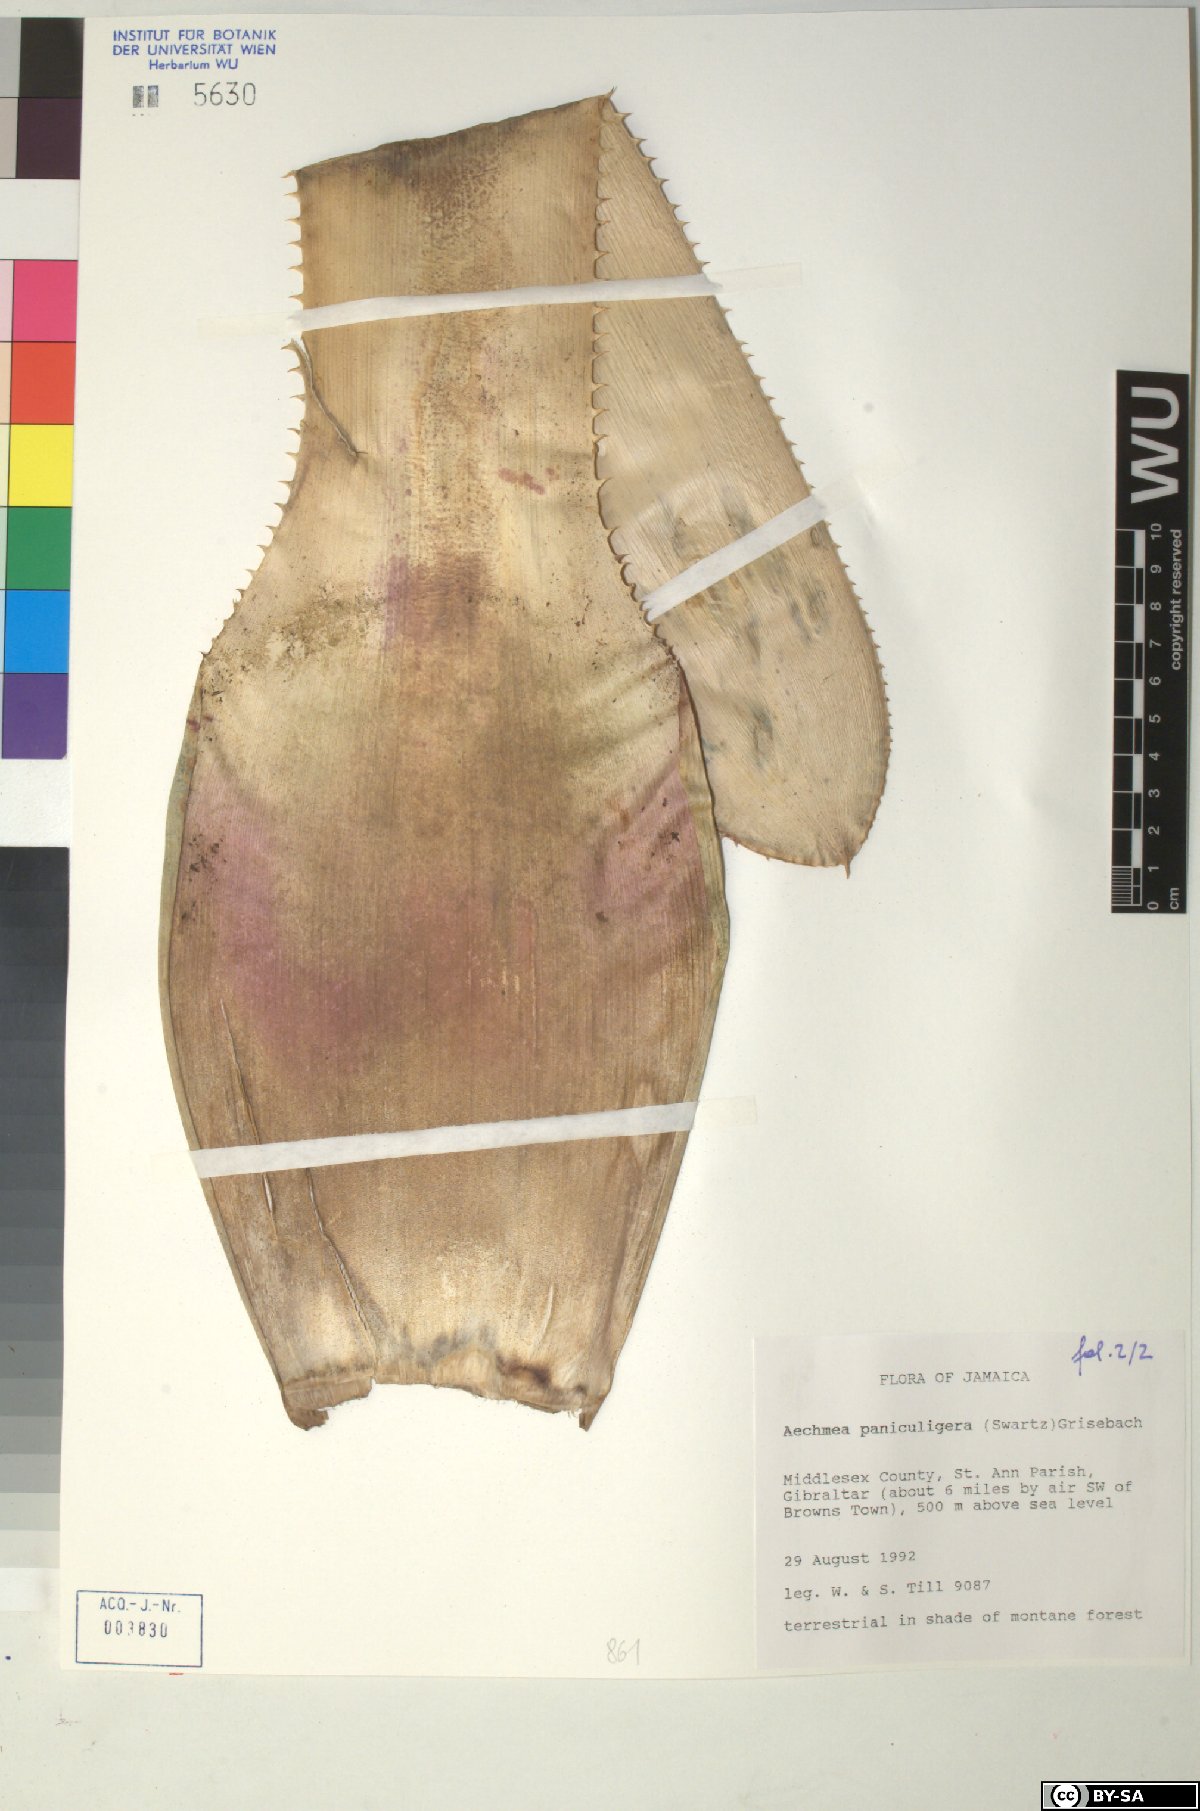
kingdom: Plantae
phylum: Tracheophyta
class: Liliopsida
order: Poales
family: Bromeliaceae
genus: Aechmea
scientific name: Aechmea paniculigera
